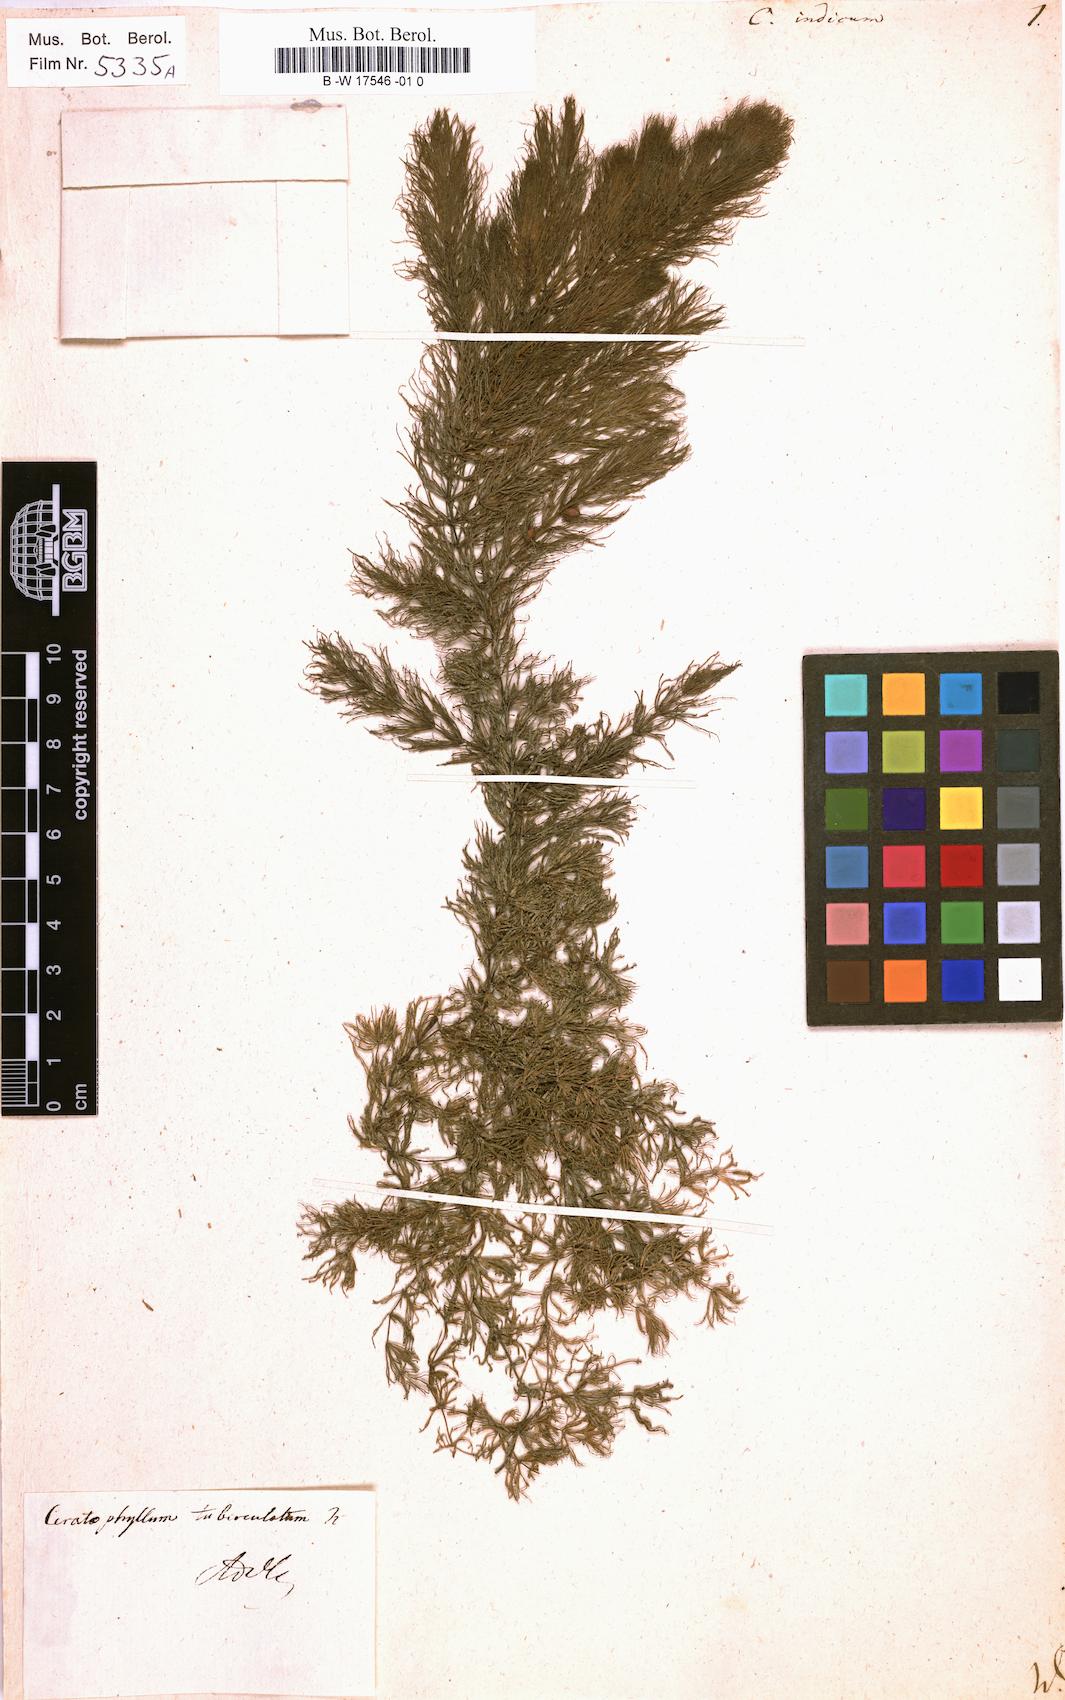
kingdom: Plantae
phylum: Tracheophyta
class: Magnoliopsida
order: Ceratophyllales
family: Ceratophyllaceae
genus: Ceratophyllum
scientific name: Ceratophyllum demersum
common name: Rigid hornwort
